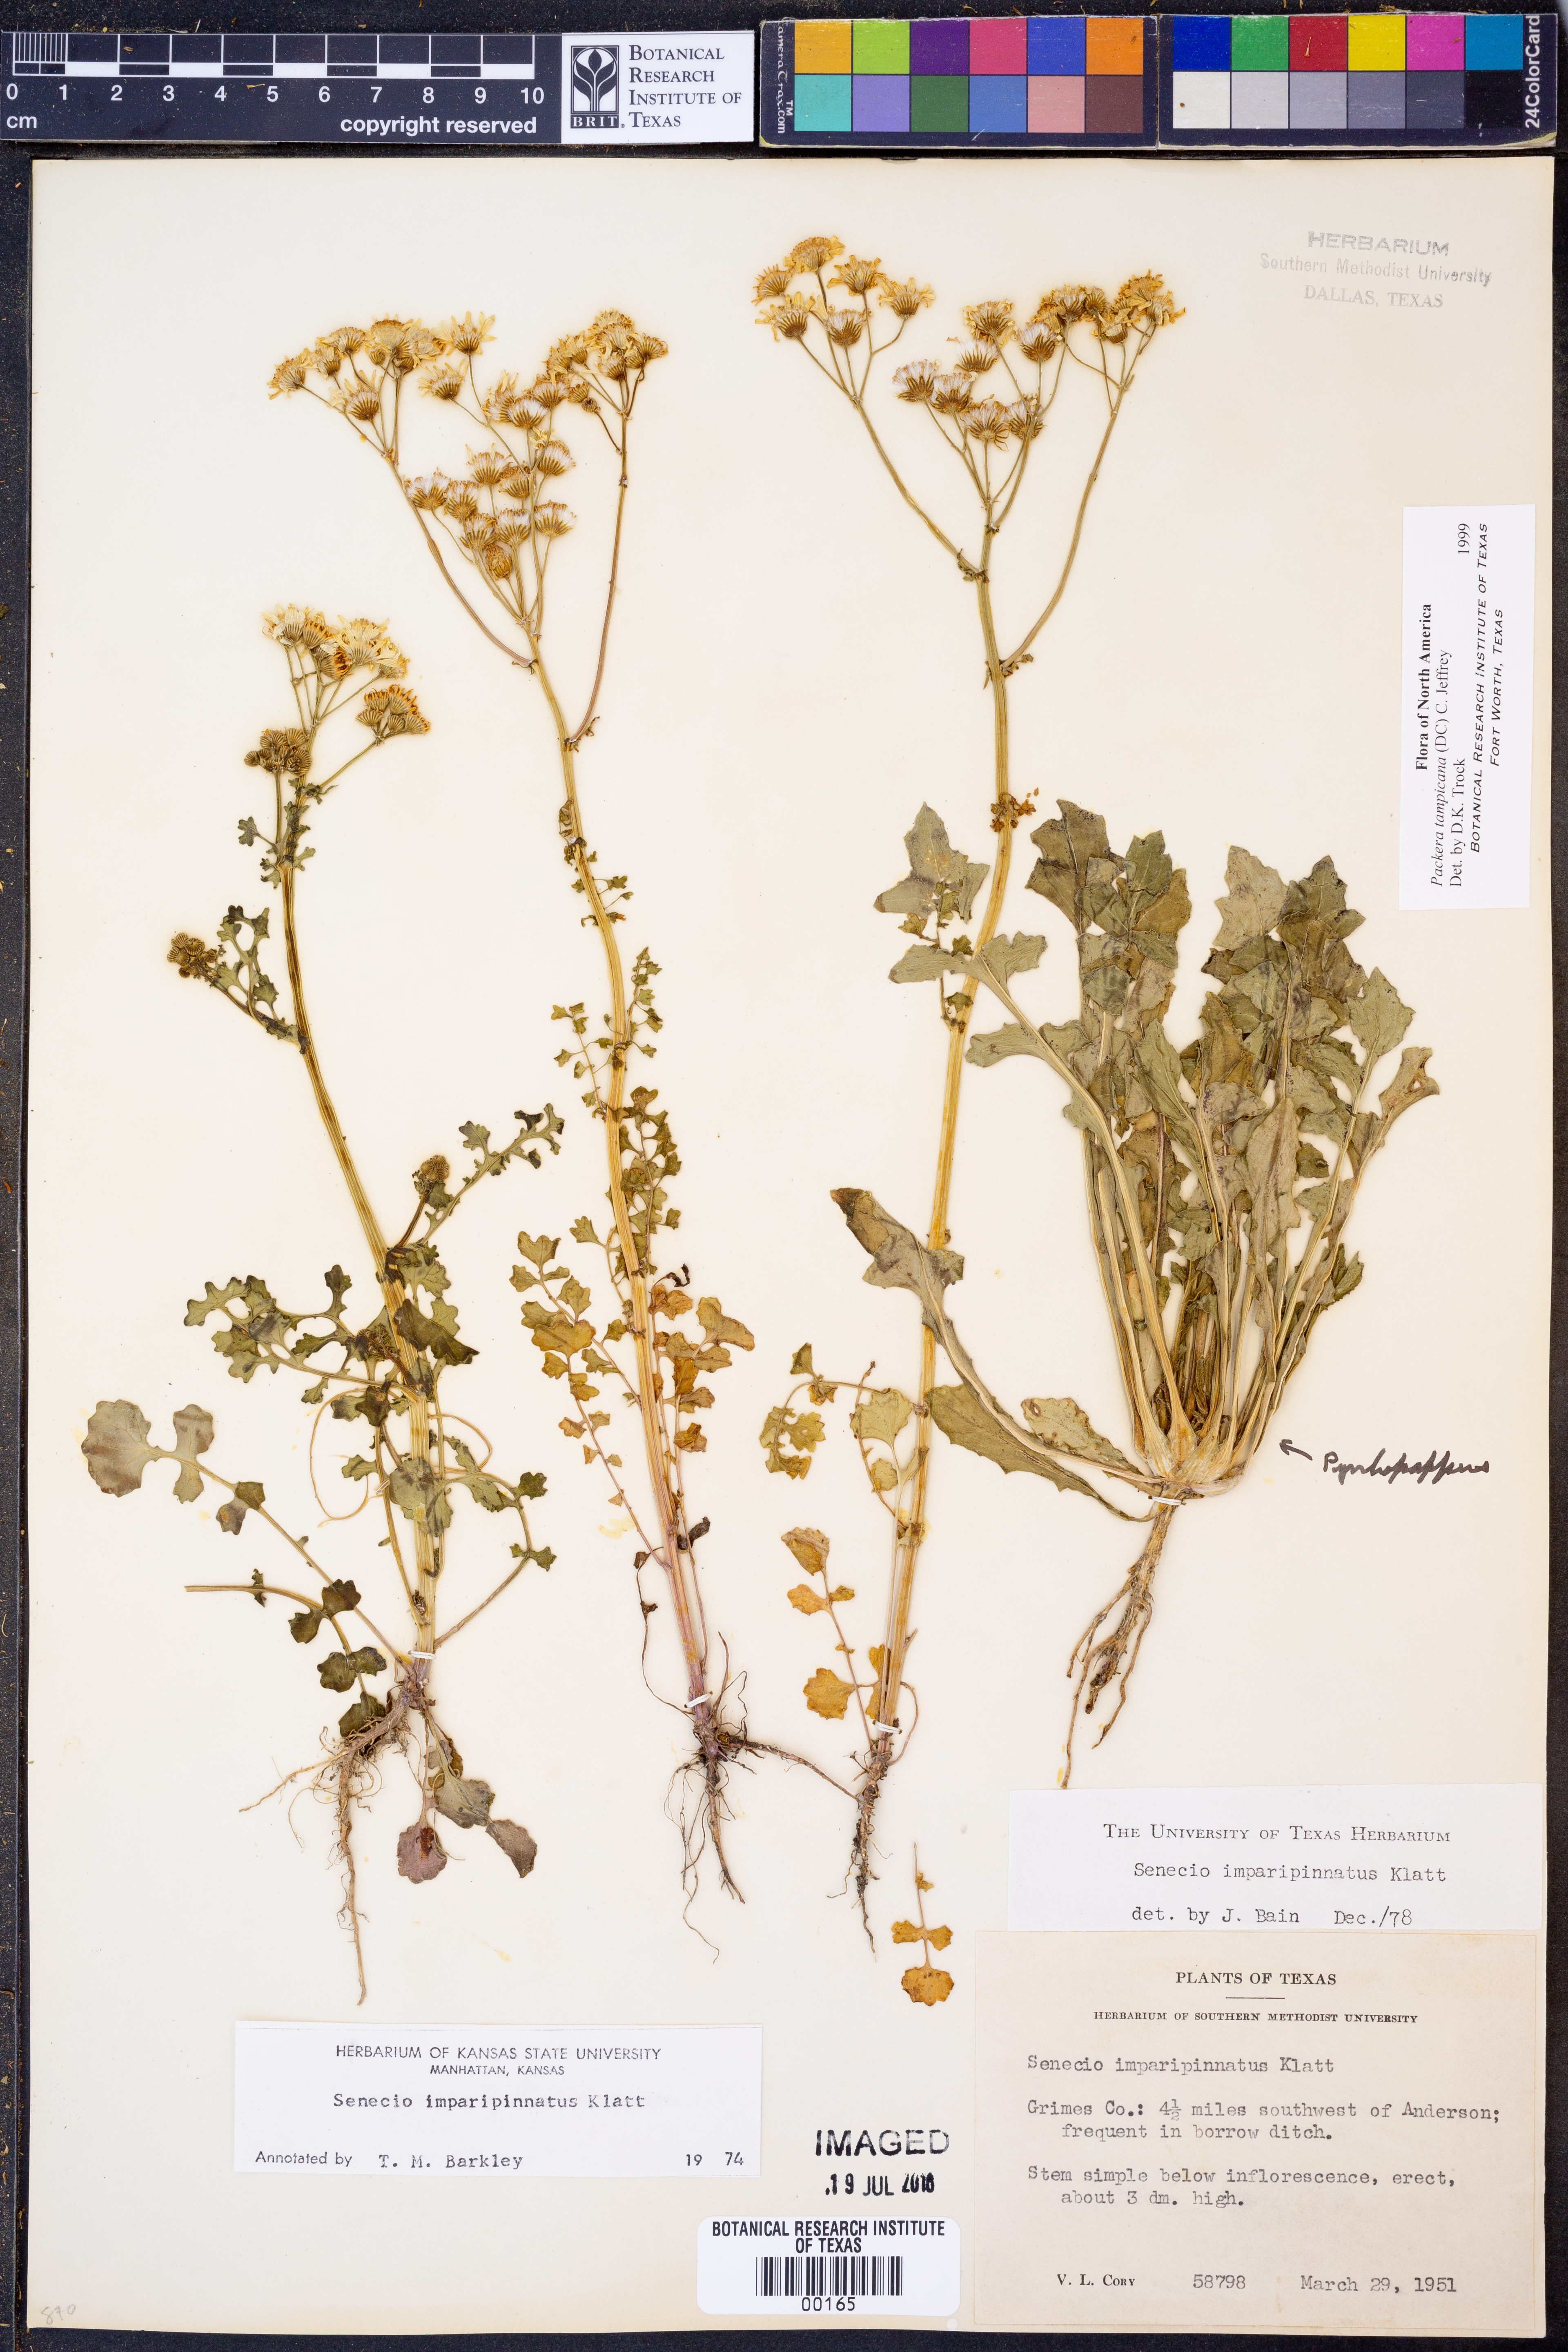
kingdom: Plantae
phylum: Tracheophyta
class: Magnoliopsida
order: Asterales
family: Asteraceae
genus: Packera
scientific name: Packera tampicana
